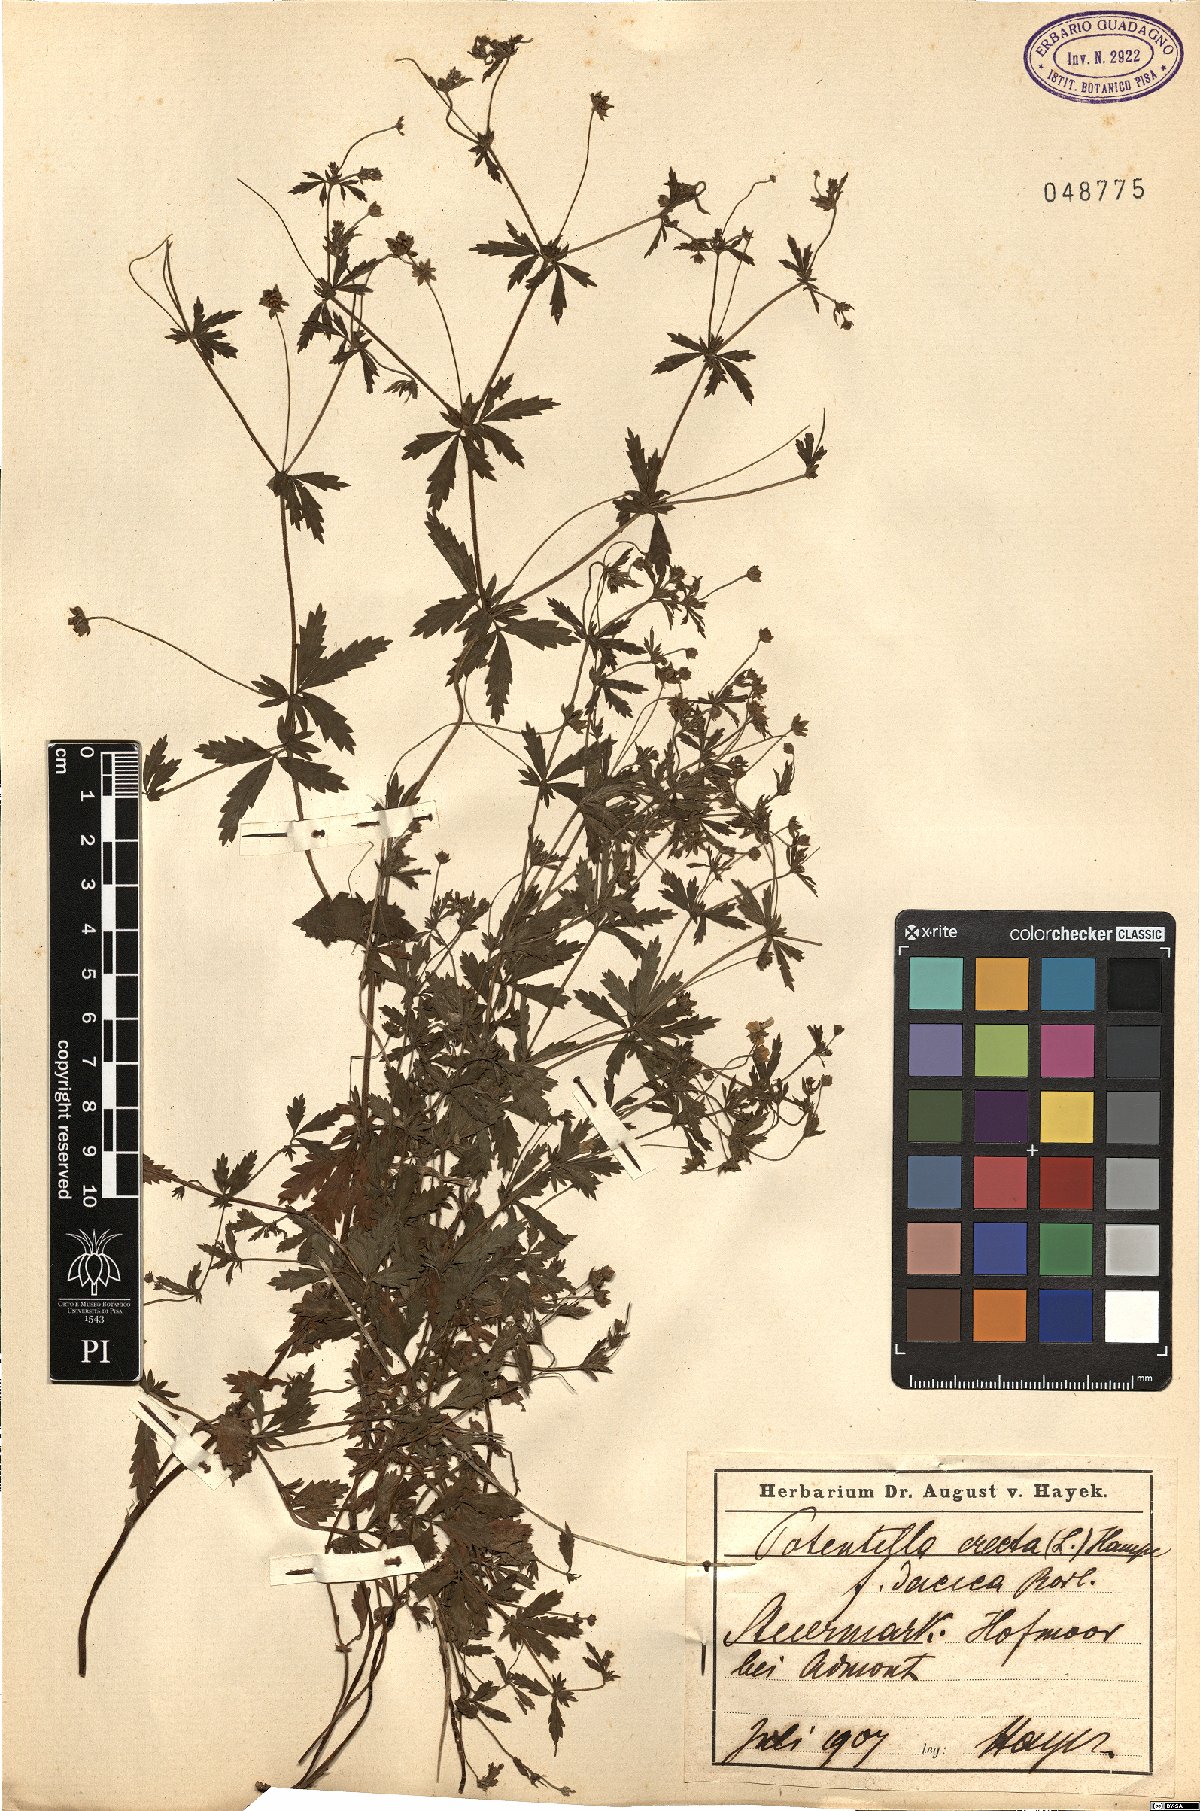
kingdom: Plantae
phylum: Tracheophyta
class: Magnoliopsida
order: Rosales
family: Rosaceae
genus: Potentilla
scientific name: Potentilla erecta
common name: Tormentil
